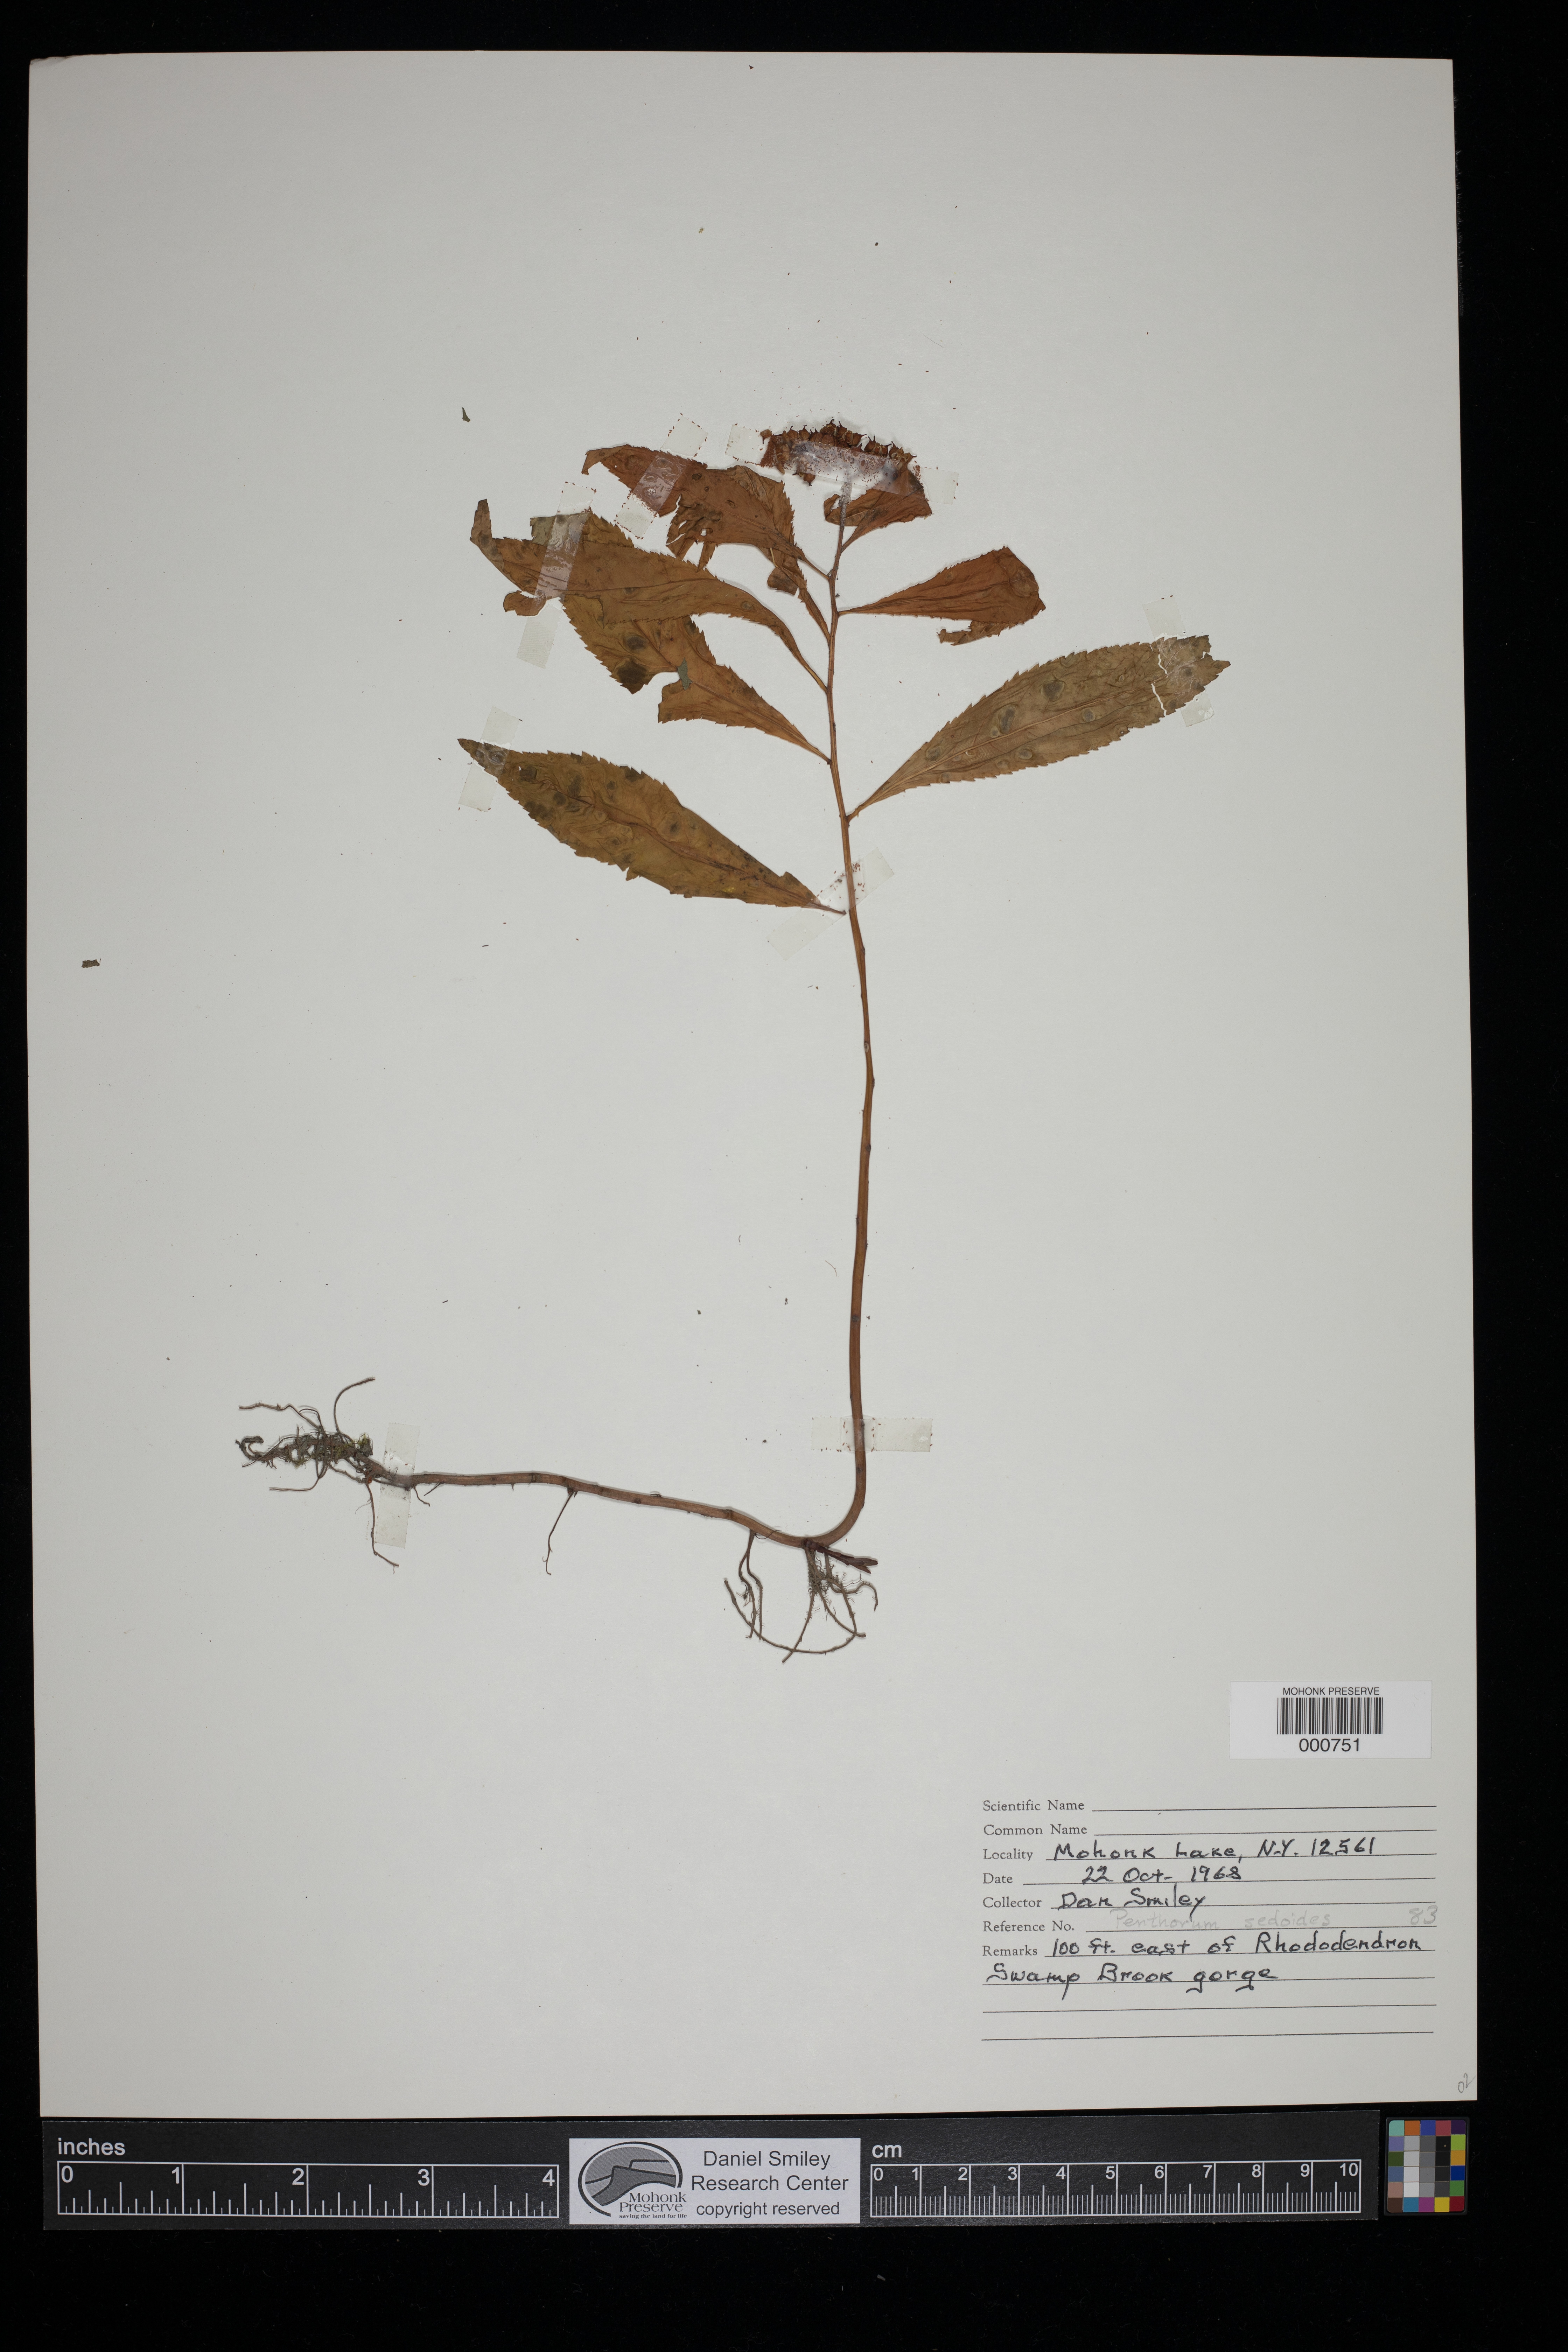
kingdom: Plantae
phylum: Tracheophyta
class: Magnoliopsida
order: Saxifragales
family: Penthoraceae
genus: Penthorum
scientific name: Penthorum sedoides
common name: Ditch stonecrop
